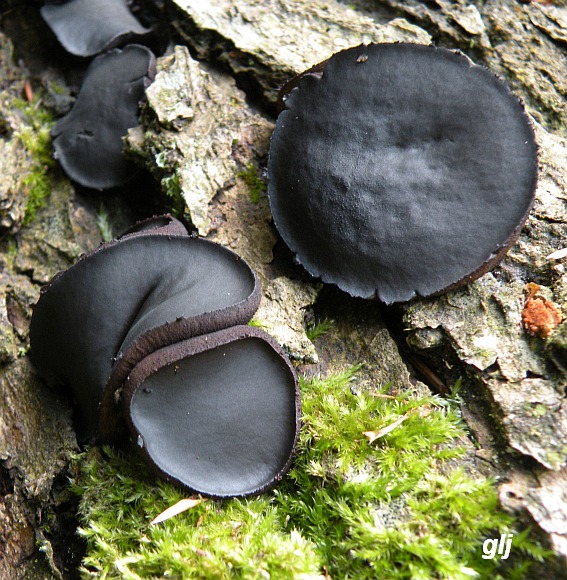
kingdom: Fungi
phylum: Ascomycota
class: Leotiomycetes
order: Phacidiales
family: Phacidiaceae
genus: Bulgaria
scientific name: Bulgaria inquinans
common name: afsmittende topsvamp
